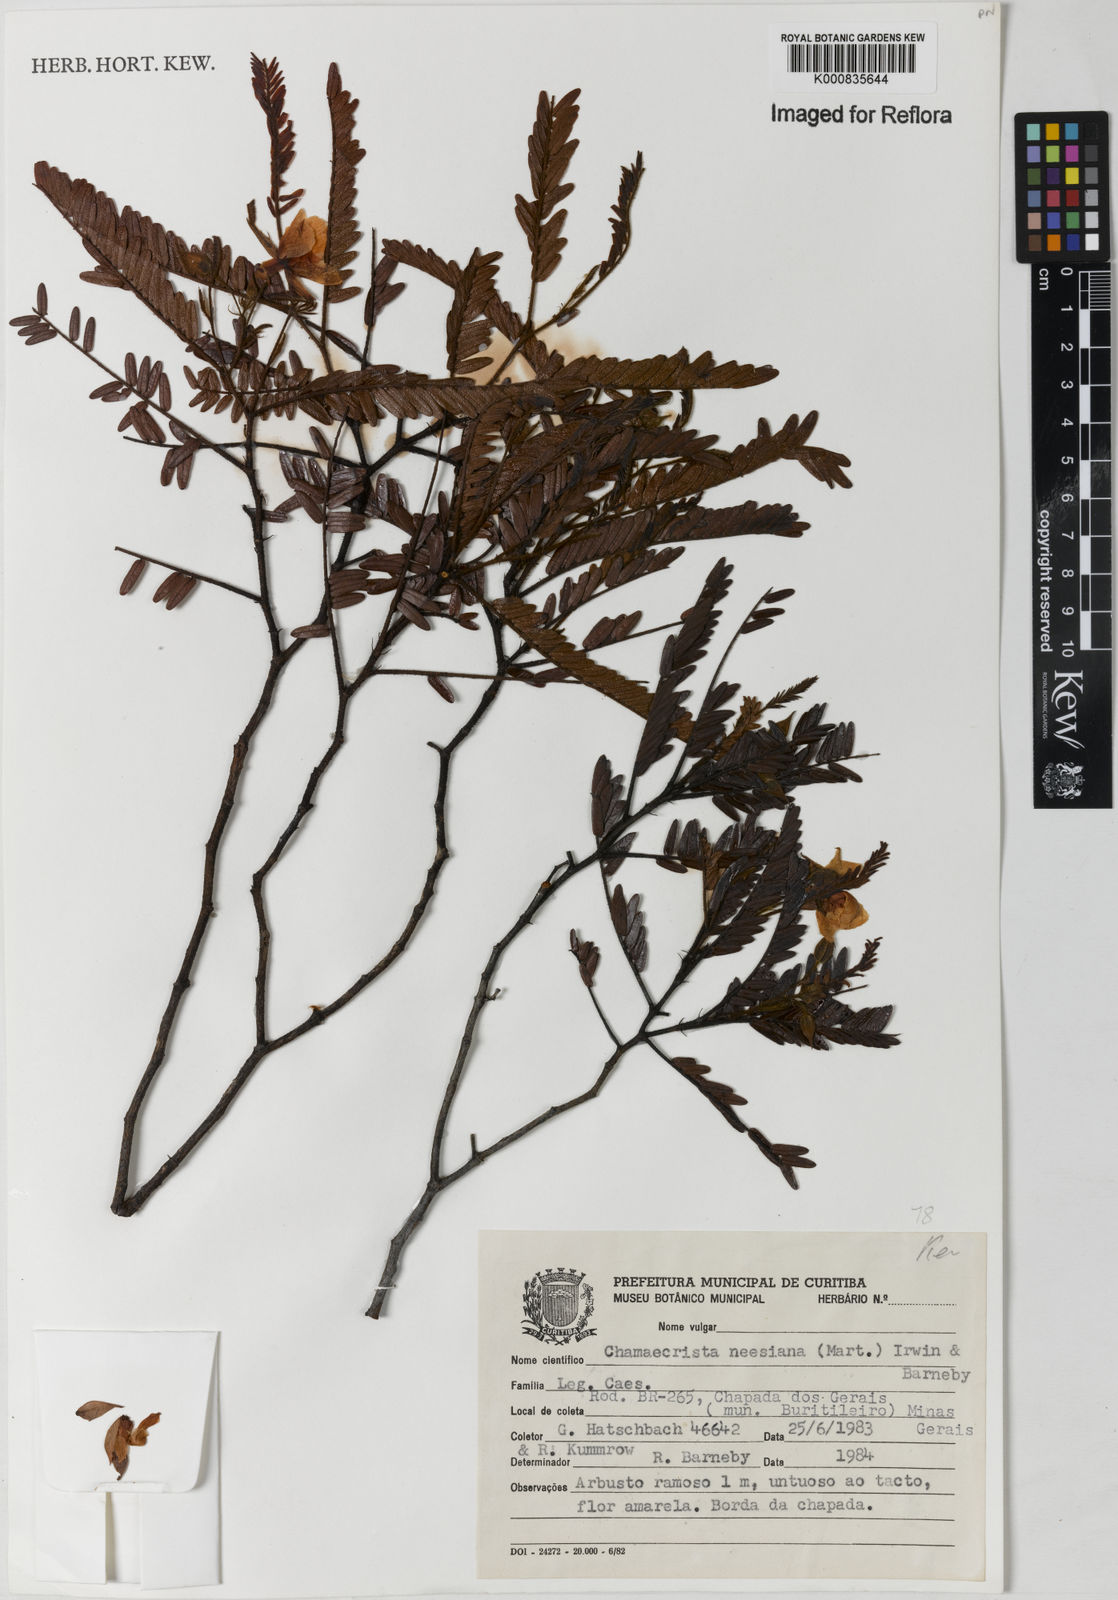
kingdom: Plantae
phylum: Tracheophyta
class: Magnoliopsida
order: Fabales
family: Fabaceae
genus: Chamaecrista
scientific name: Chamaecrista neesiana
